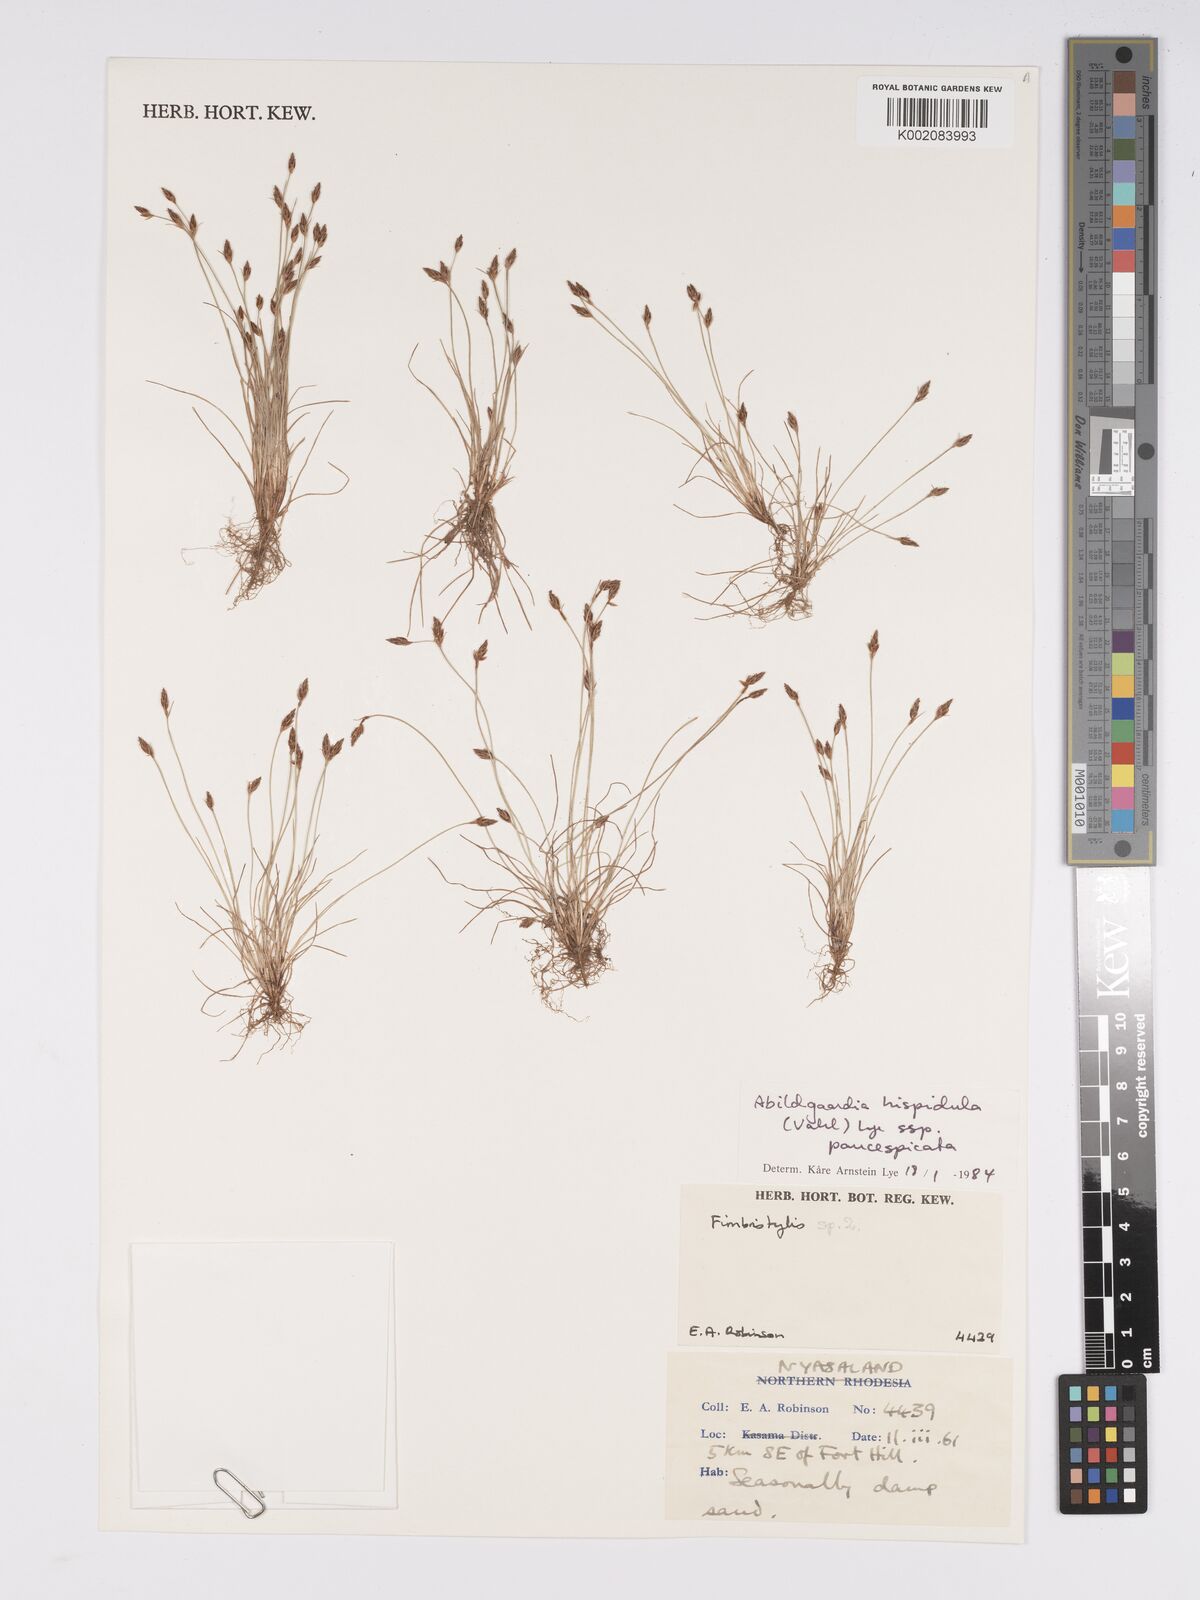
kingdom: Plantae
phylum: Tracheophyta
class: Liliopsida
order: Poales
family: Cyperaceae
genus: Bulbostylis
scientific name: Bulbostylis hispidula
